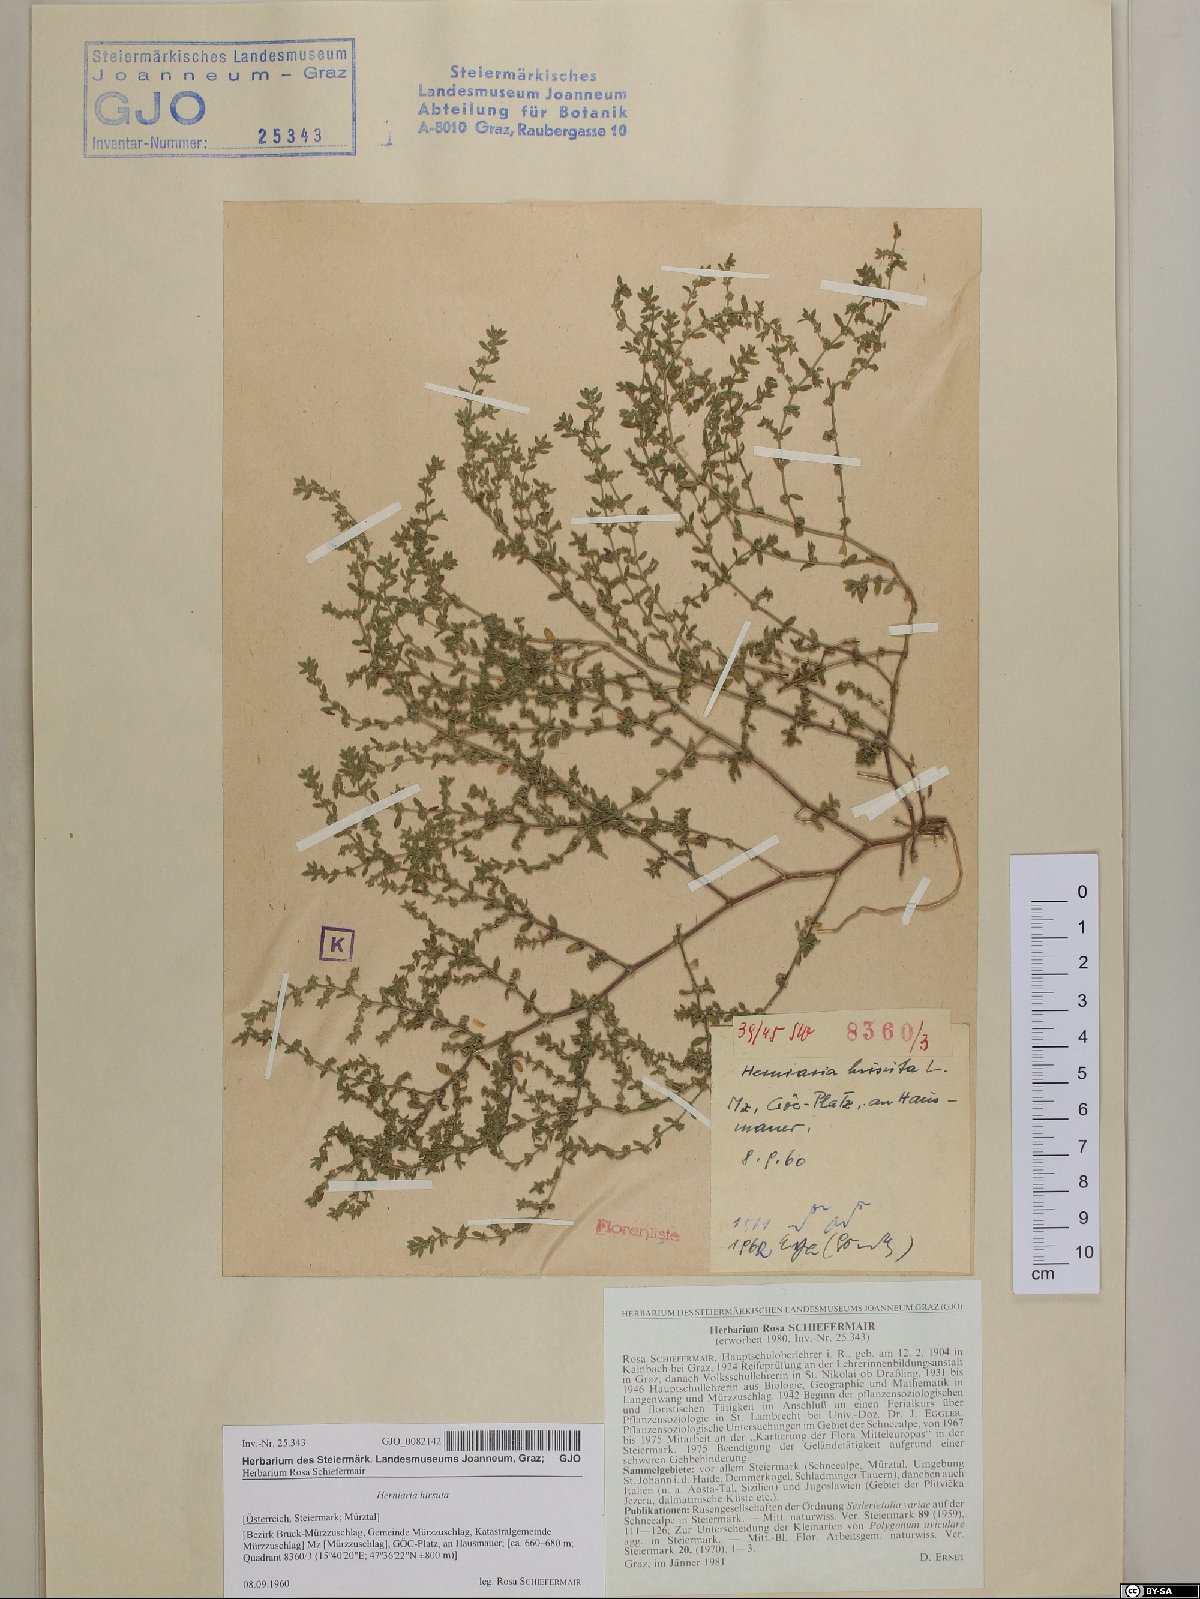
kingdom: Plantae
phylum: Tracheophyta
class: Magnoliopsida
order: Caryophyllales
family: Caryophyllaceae
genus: Herniaria
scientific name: Herniaria hirsuta
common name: Hairy rupturewort
